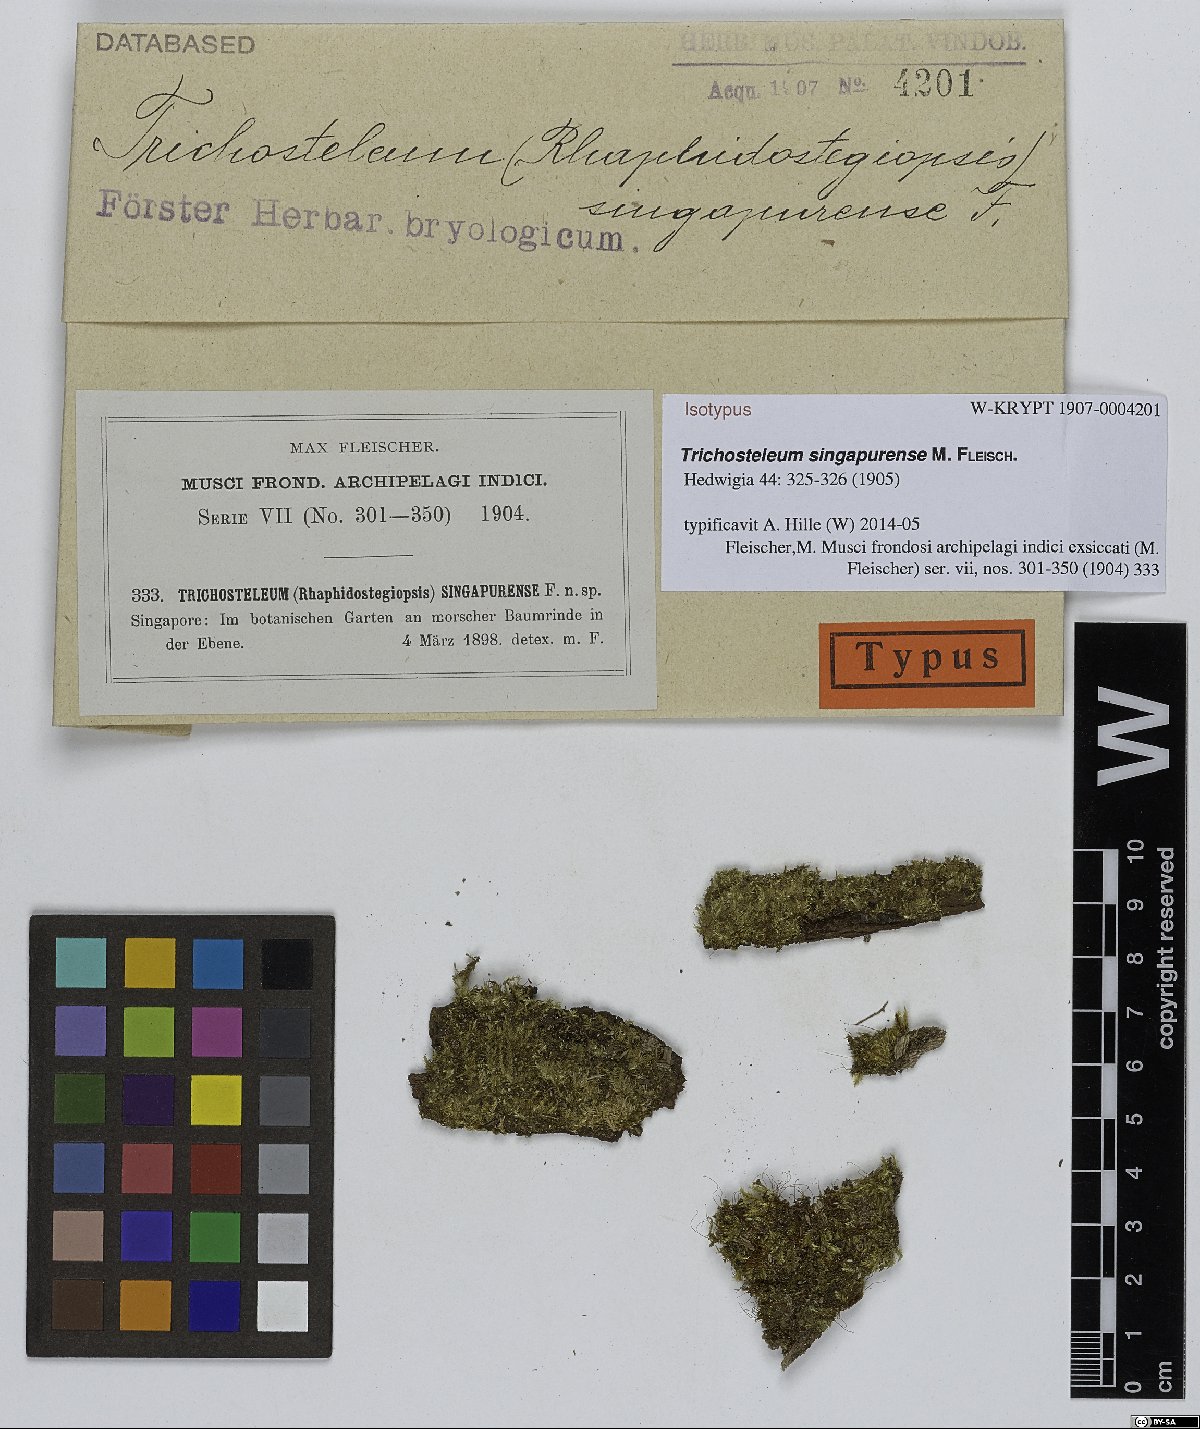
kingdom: Plantae
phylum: Bryophyta
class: Bryopsida
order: Hypnales
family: Sematophyllaceae
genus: Trichosteleum
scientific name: Trichosteleum stigmosum
